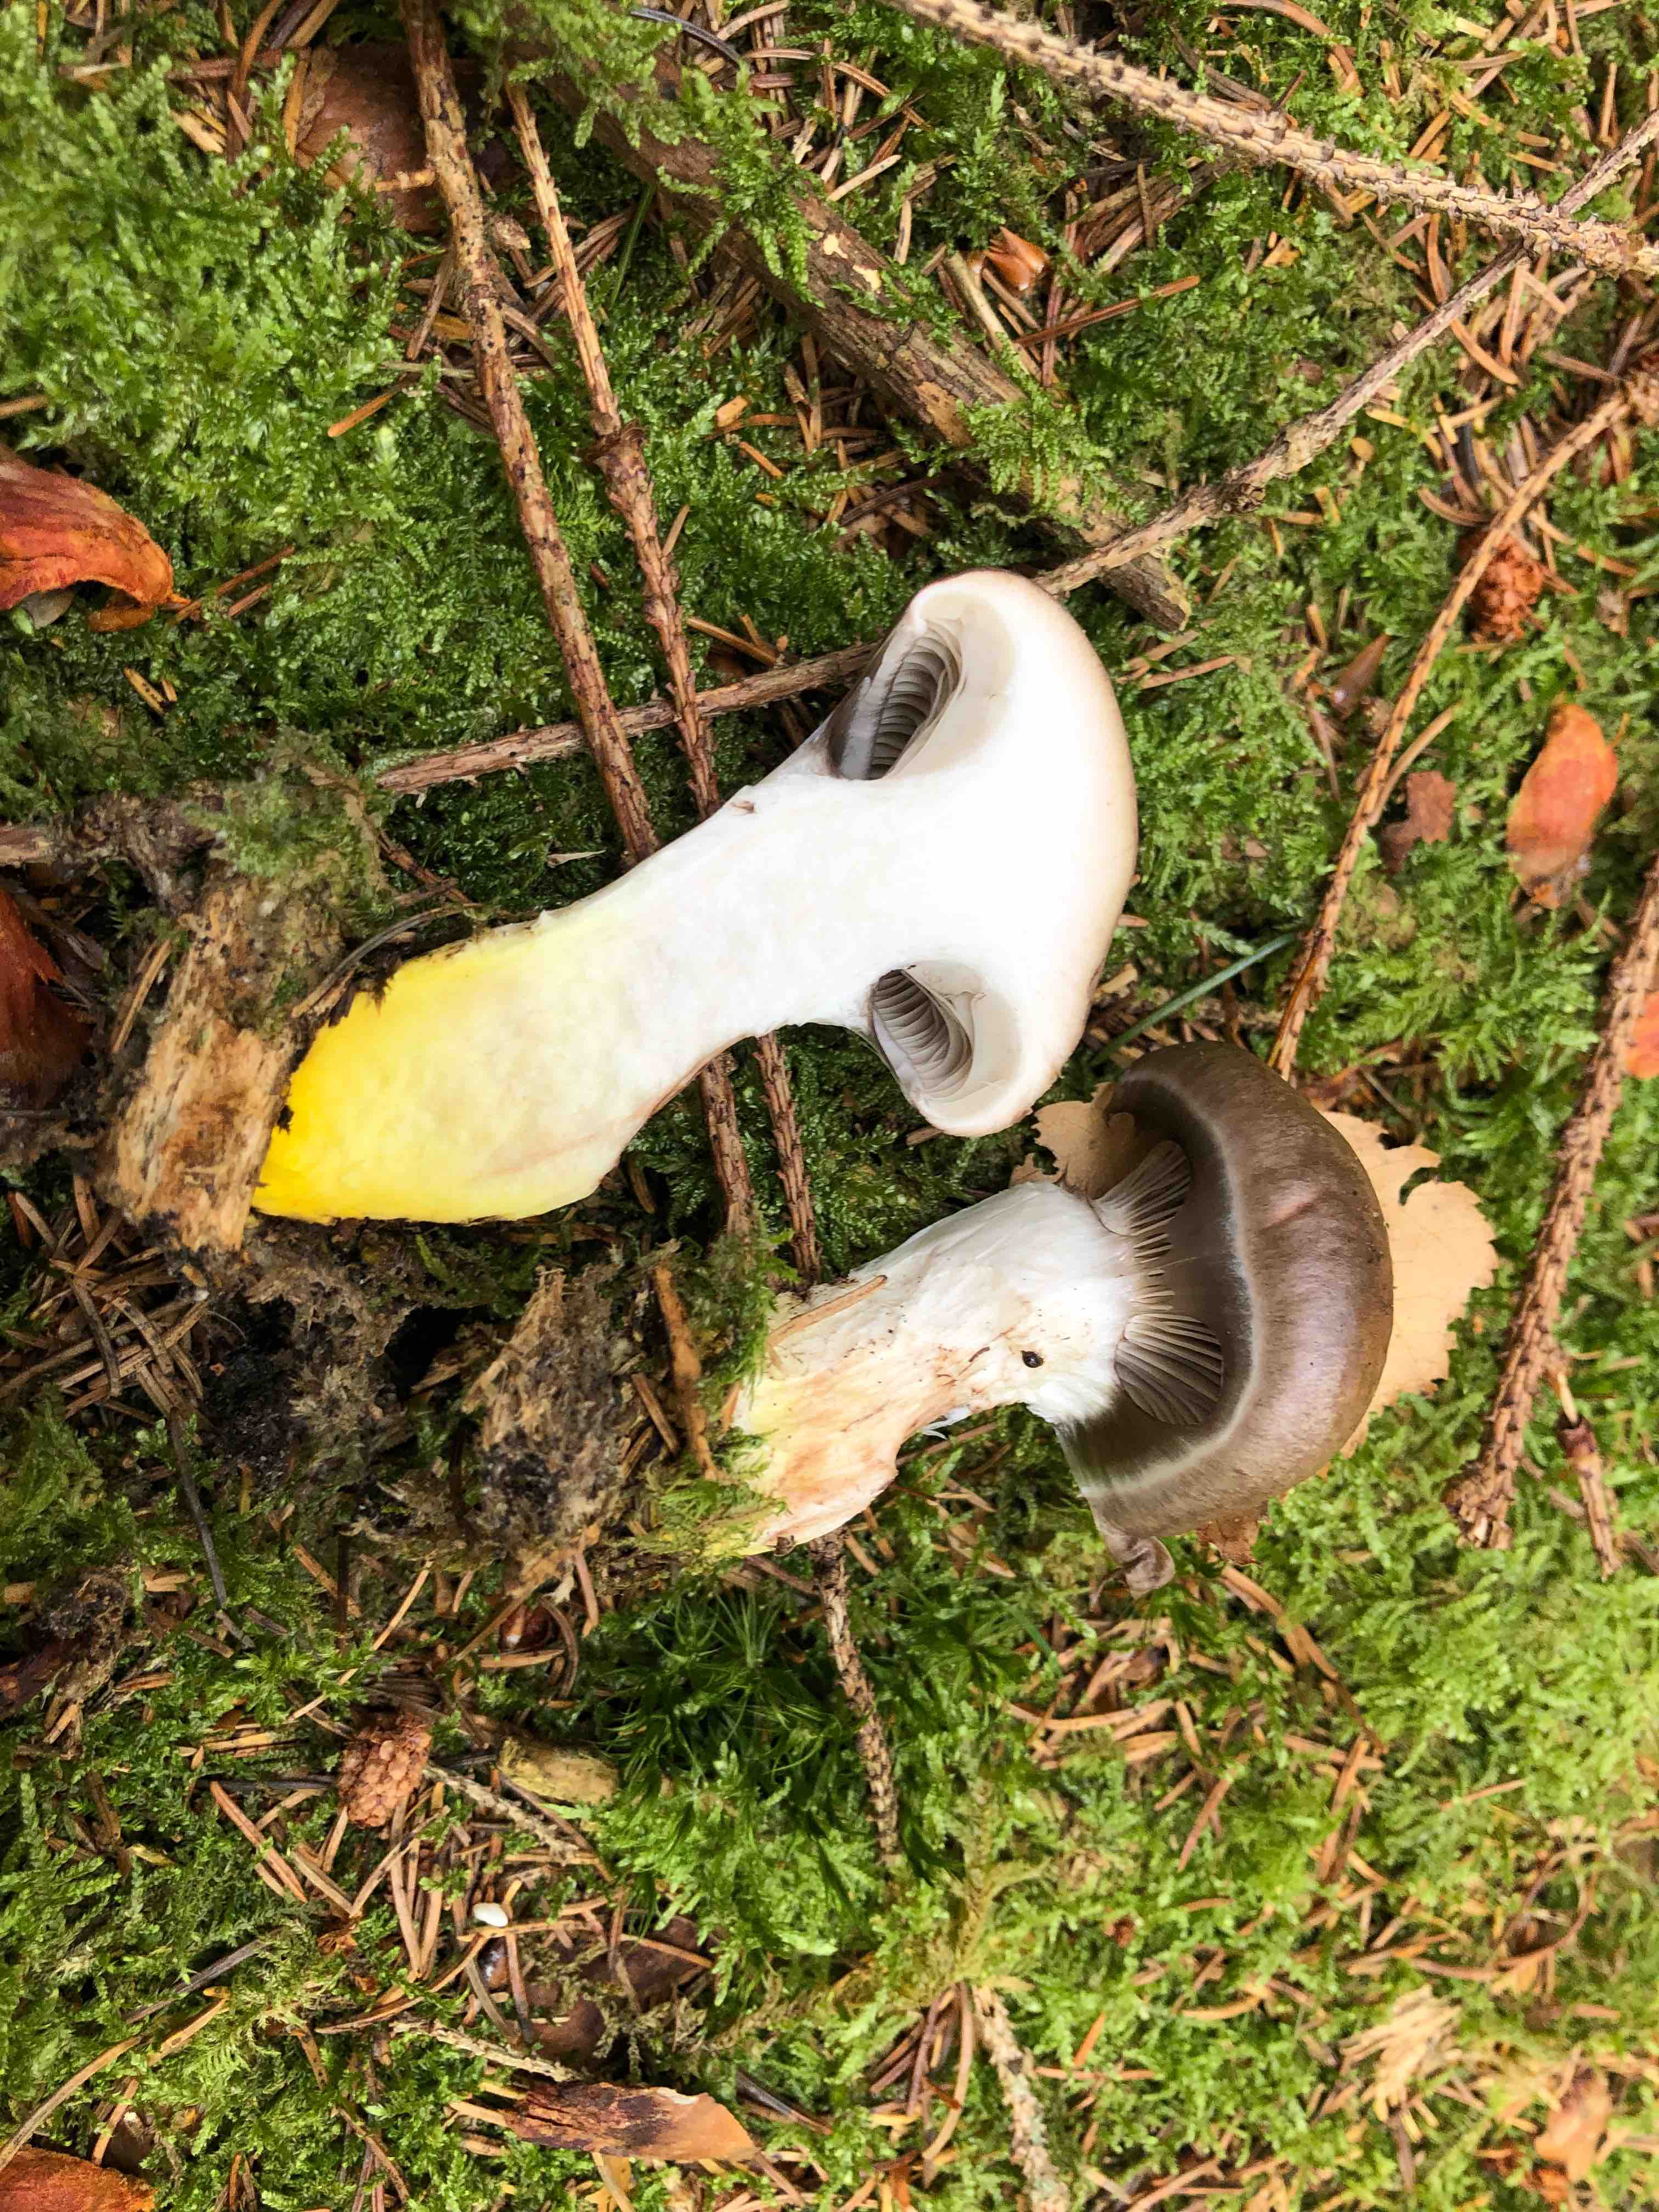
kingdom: Fungi
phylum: Basidiomycota
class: Agaricomycetes
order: Boletales
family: Gomphidiaceae
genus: Gomphidius
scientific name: Gomphidius glutinosus
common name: grå slimslør
